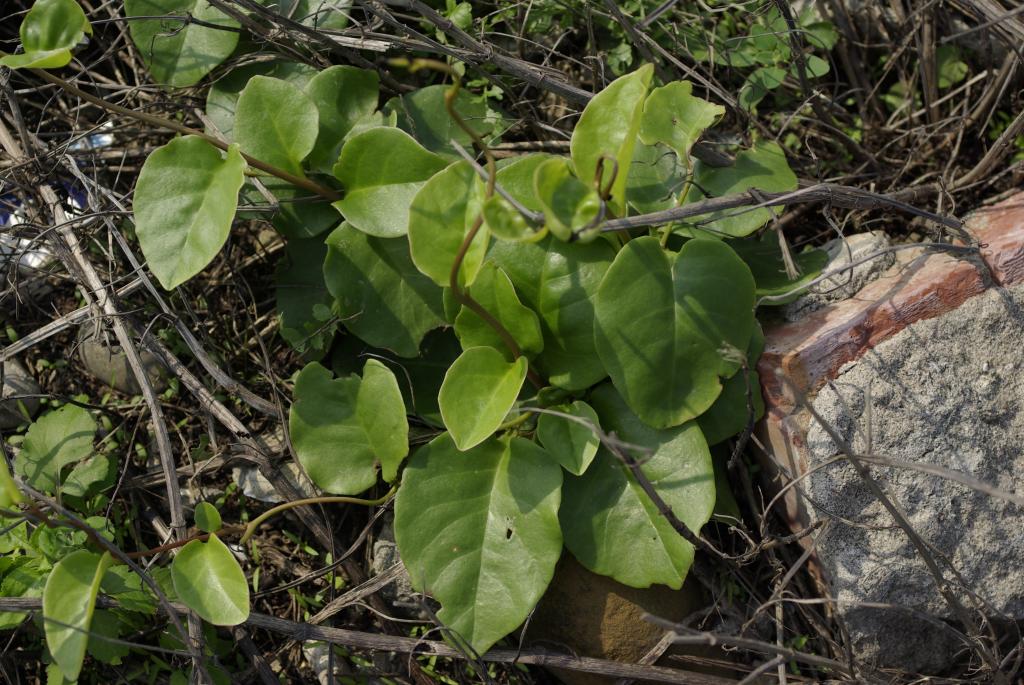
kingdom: Plantae
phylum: Tracheophyta
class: Magnoliopsida
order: Caryophyllales
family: Basellaceae
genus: Anredera
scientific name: Anredera cordifolia
